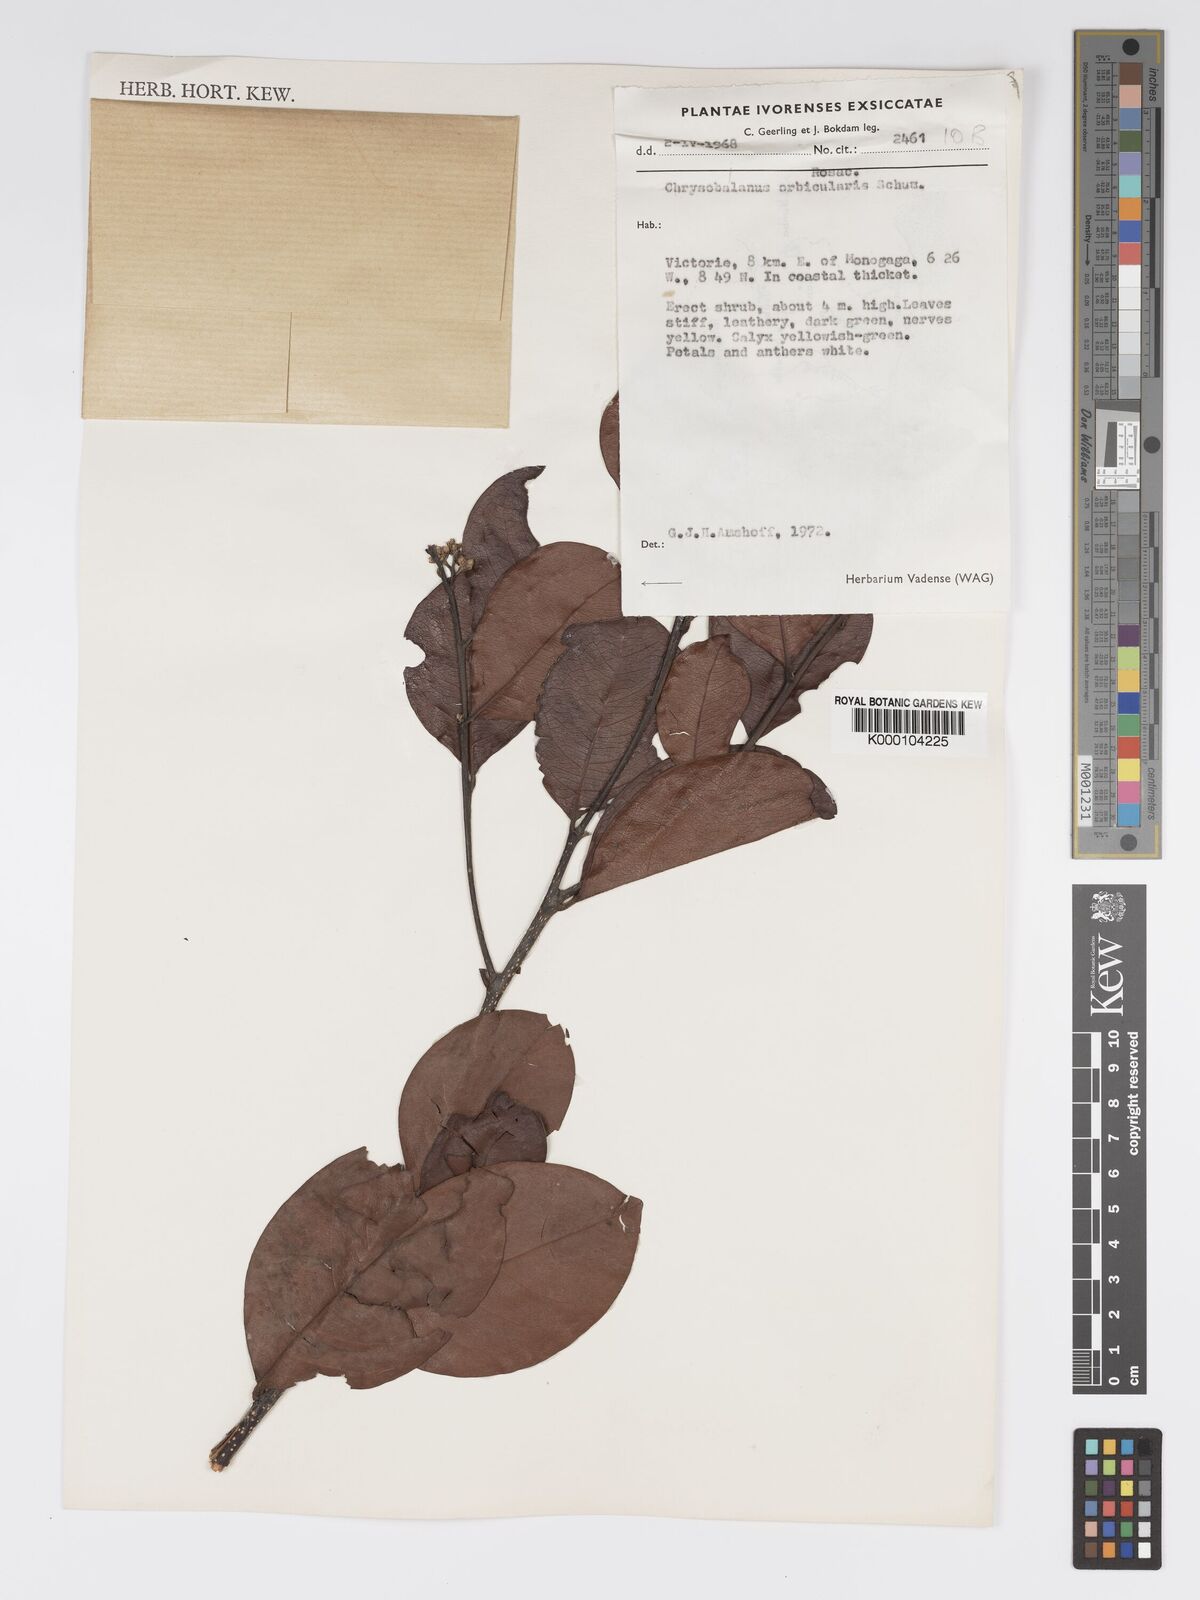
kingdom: Plantae
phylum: Tracheophyta
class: Magnoliopsida
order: Malpighiales
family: Chrysobalanaceae
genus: Chrysobalanus
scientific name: Chrysobalanus icaco
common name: Coco plum
